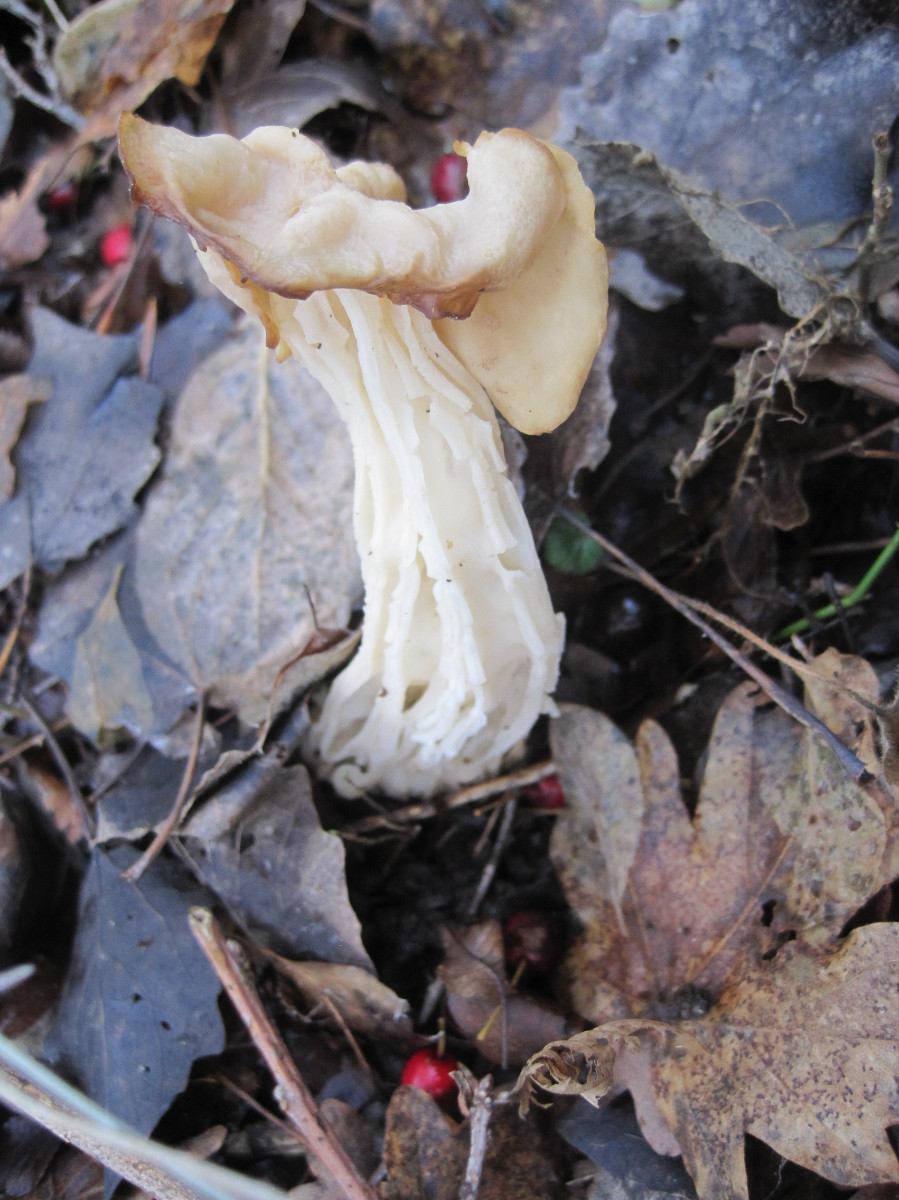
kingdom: Fungi
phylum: Ascomycota
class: Pezizomycetes
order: Pezizales
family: Helvellaceae
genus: Helvella
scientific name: Helvella crispa
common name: kruset foldhat
